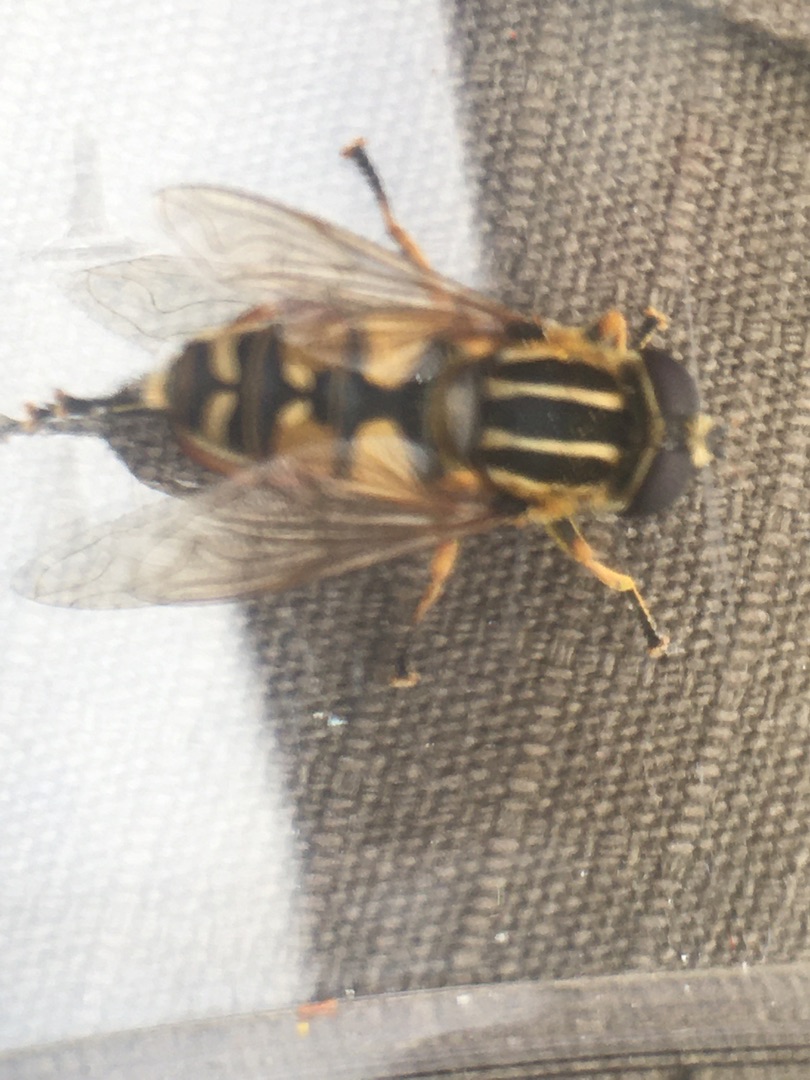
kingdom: Animalia
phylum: Arthropoda
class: Insecta
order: Diptera
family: Syrphidae
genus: Helophilus
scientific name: Helophilus pendulus
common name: Almindelig sumpsvirreflue
